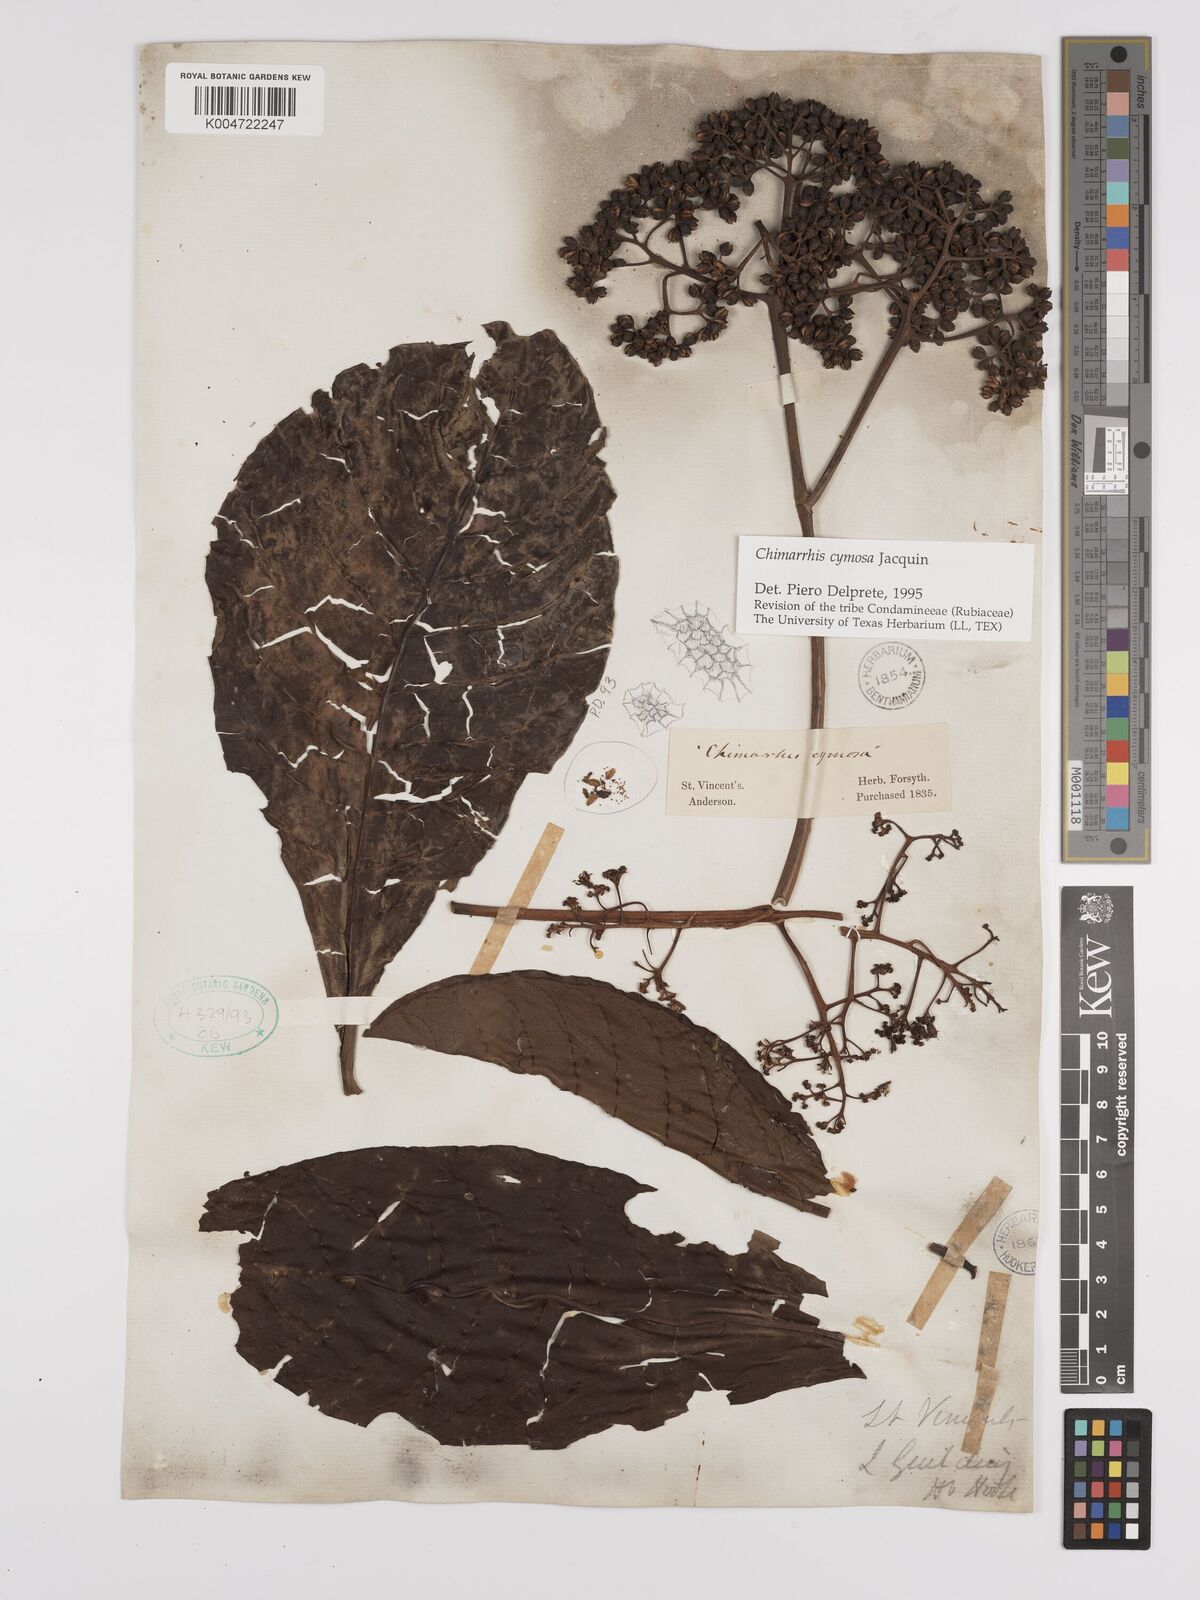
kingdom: Plantae
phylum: Tracheophyta
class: Magnoliopsida
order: Gentianales
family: Rubiaceae
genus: Chimarrhis
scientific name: Chimarrhis cymosa
